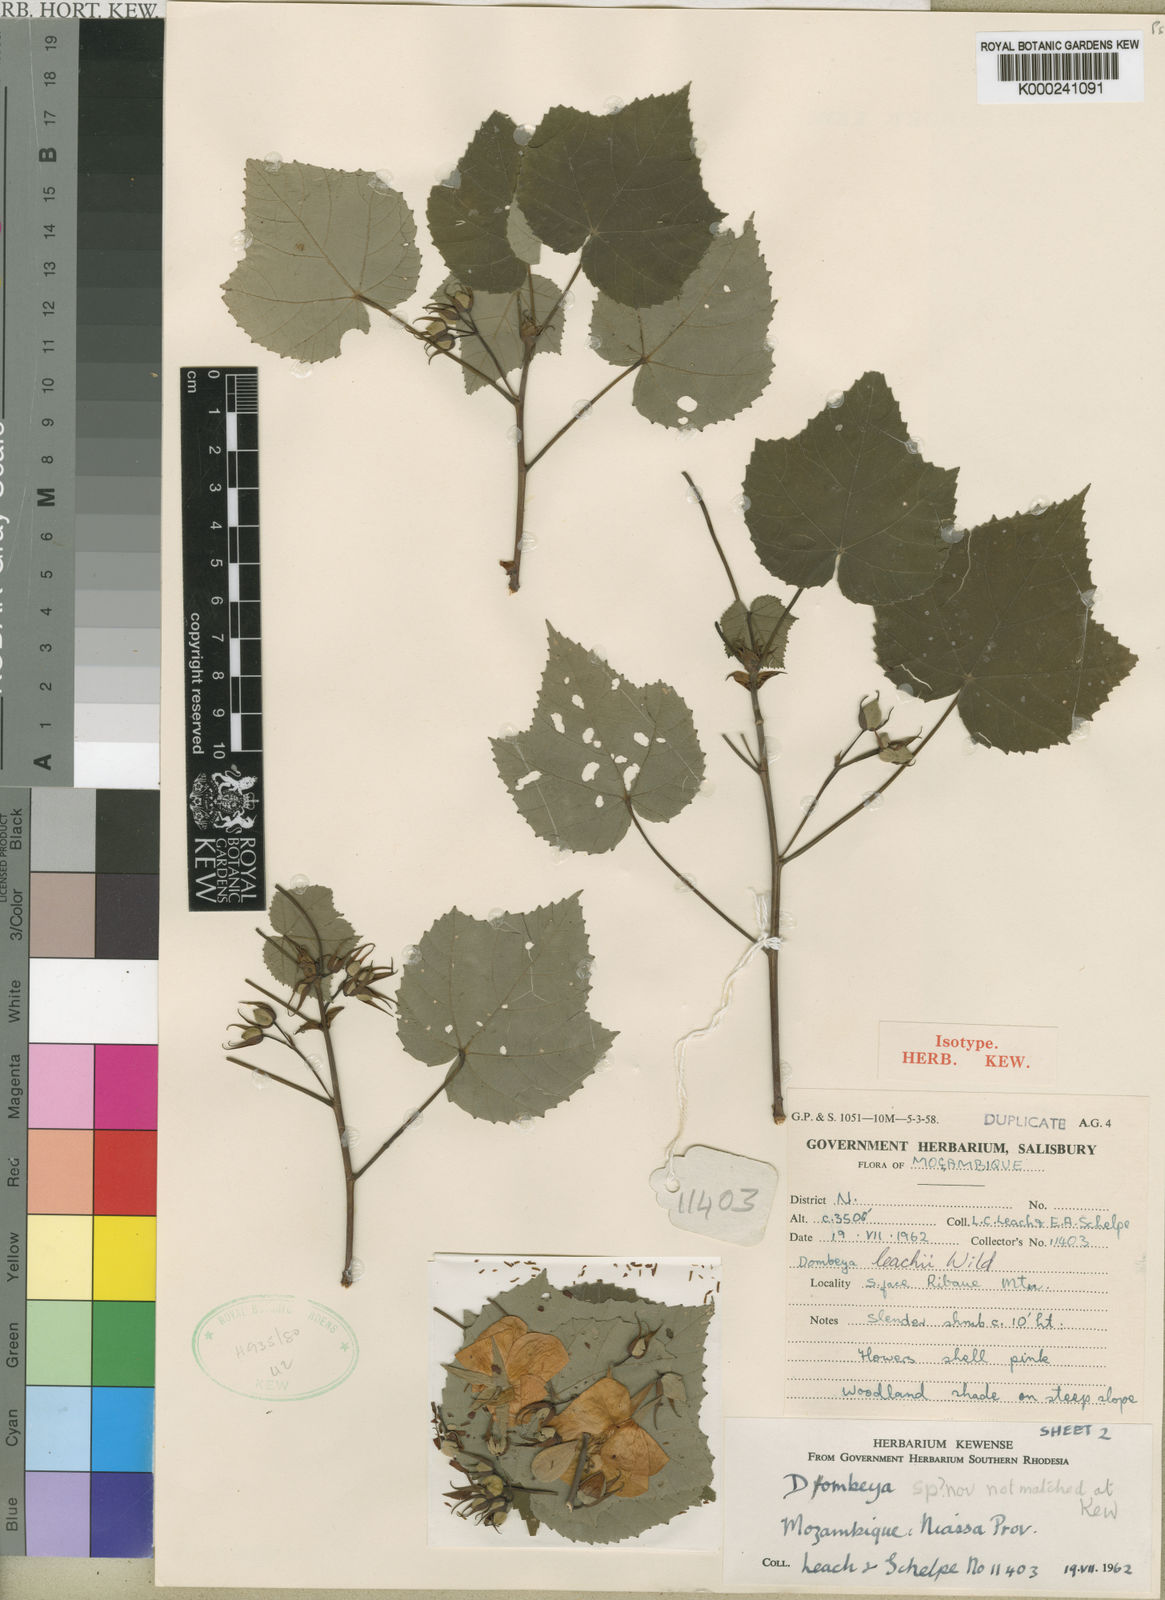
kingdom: Plantae
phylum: Tracheophyta
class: Magnoliopsida
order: Malvales
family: Malvaceae
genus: Dombeya
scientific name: Dombeya leachii
